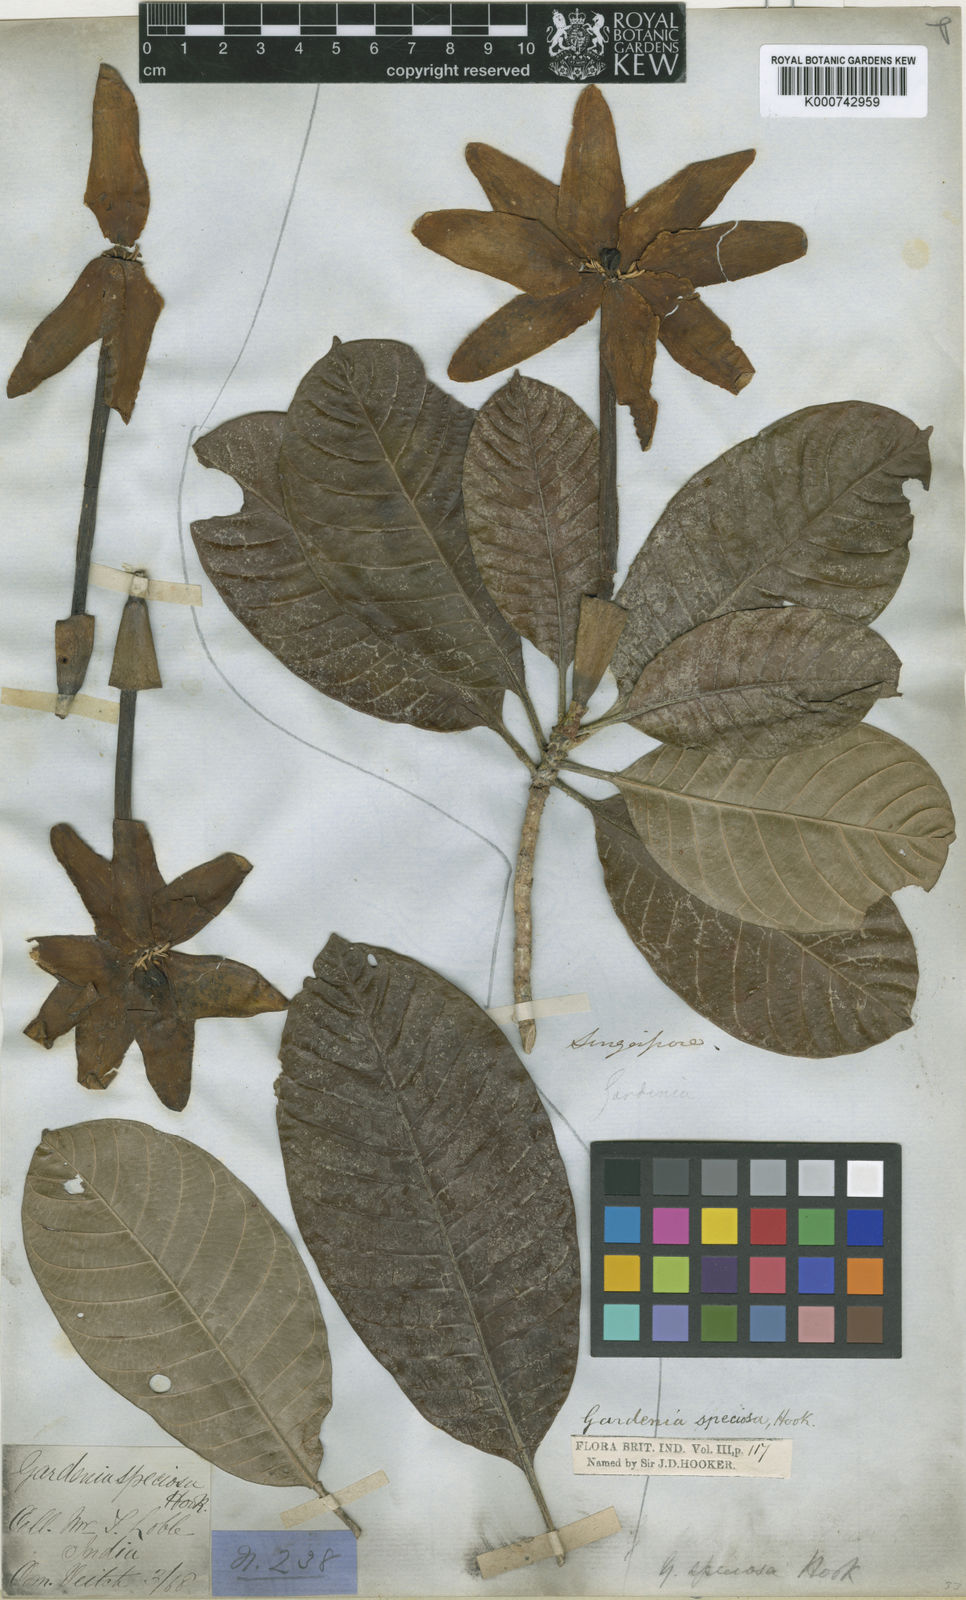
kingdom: Plantae
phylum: Tracheophyta
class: Magnoliopsida
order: Gentianales
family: Rubiaceae
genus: Gardenia
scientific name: Gardenia elata
